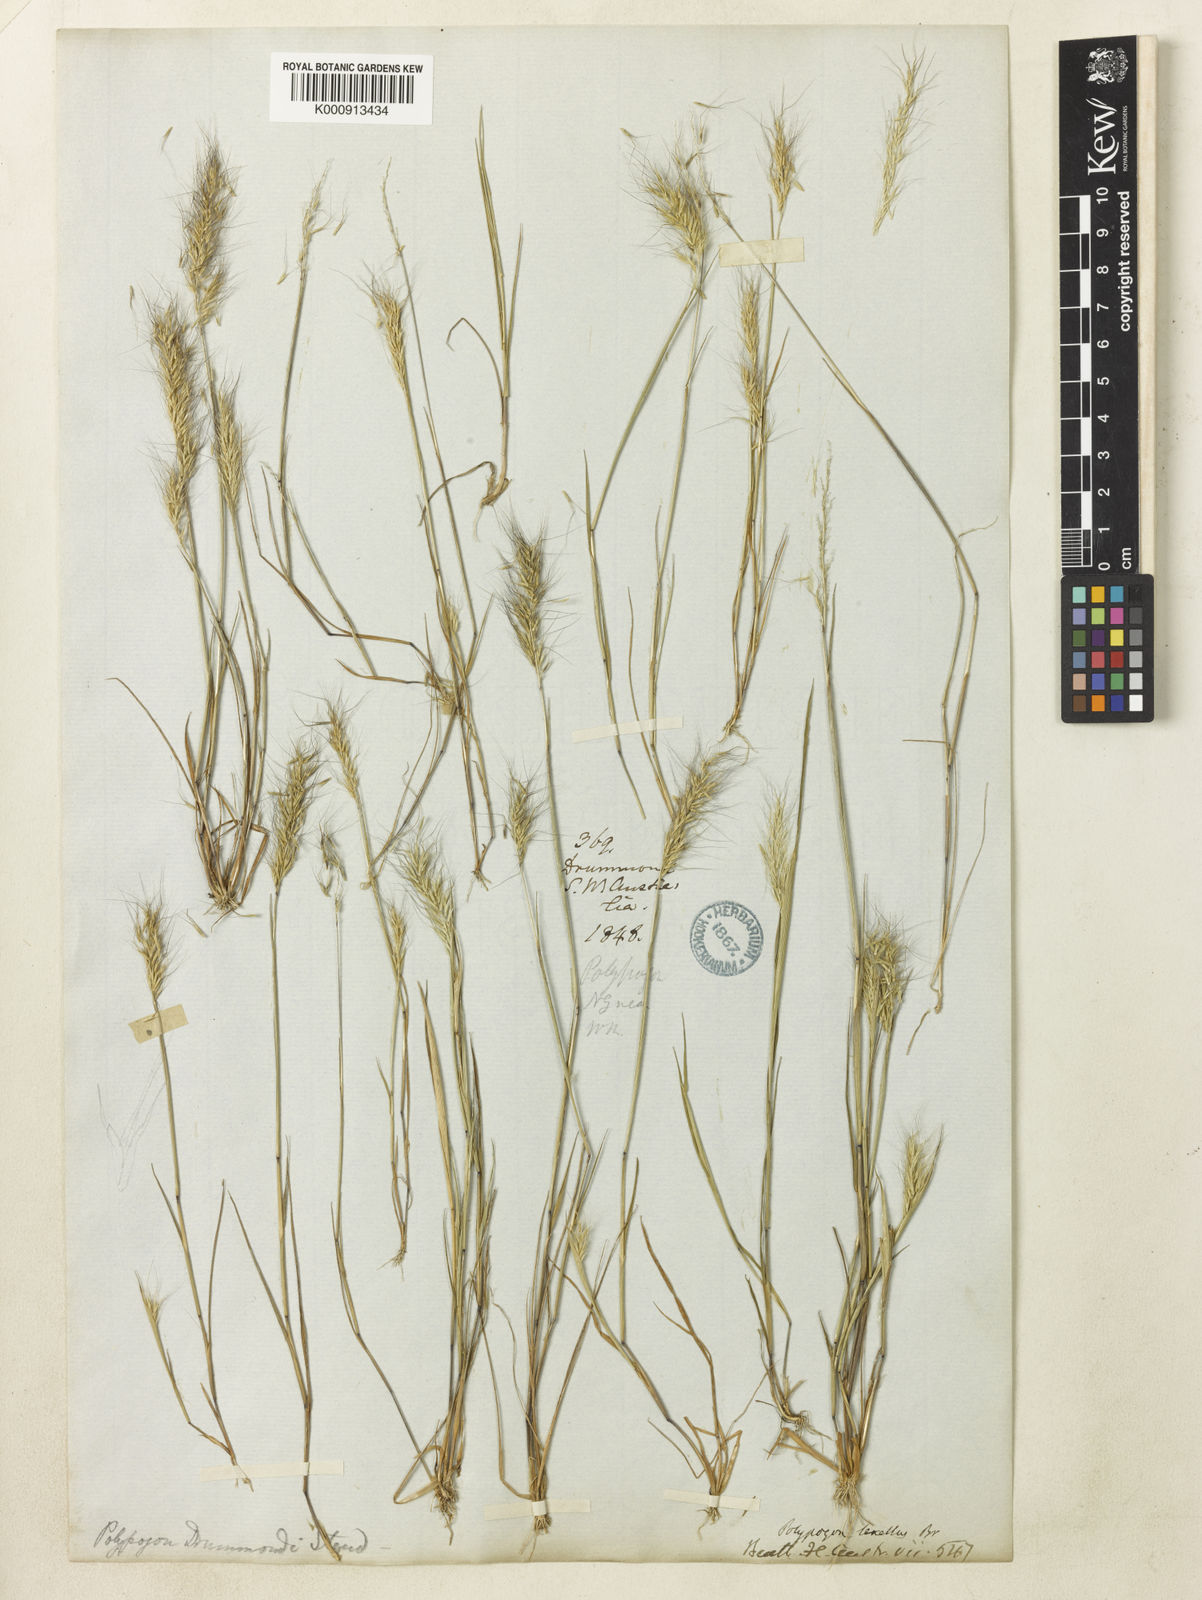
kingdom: Plantae
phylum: Tracheophyta
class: Liliopsida
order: Poales
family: Poaceae
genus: Polypogon
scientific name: Polypogon tenellus
